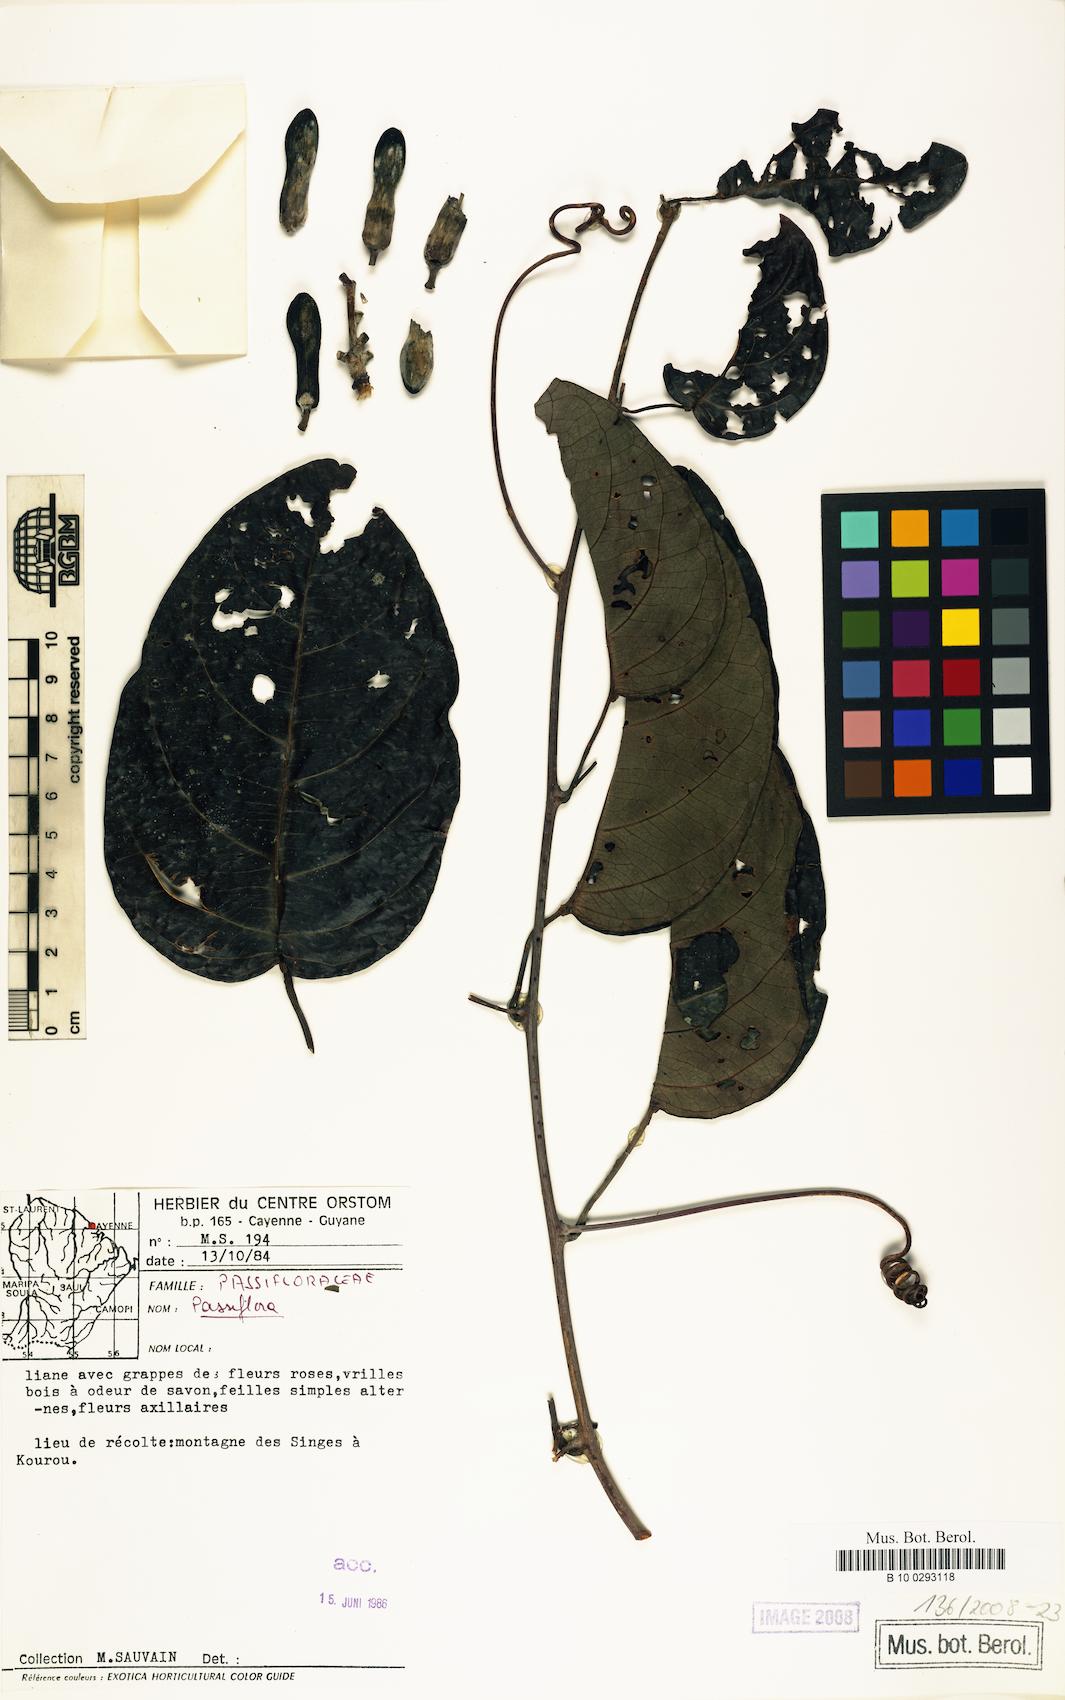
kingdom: Plantae
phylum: Tracheophyta
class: Magnoliopsida
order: Malpighiales
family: Passifloraceae
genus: Passiflora
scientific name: Passiflora
